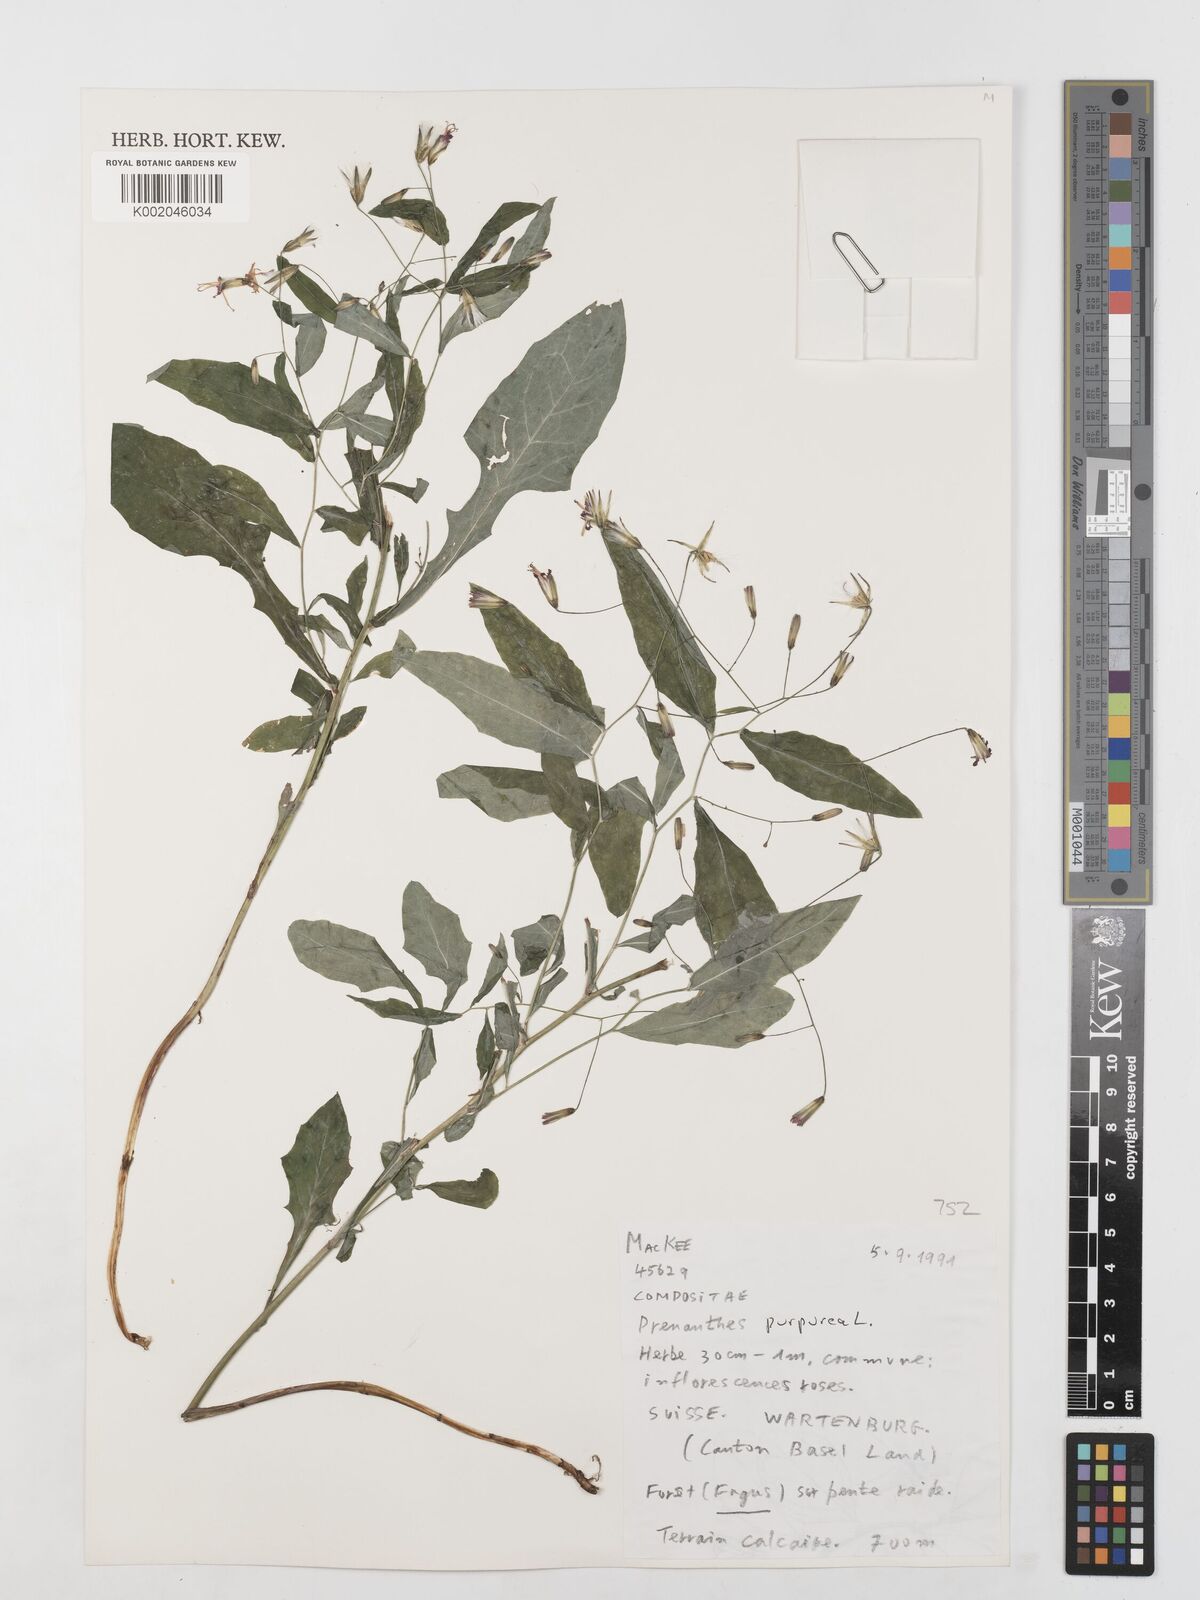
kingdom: Plantae
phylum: Tracheophyta
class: Magnoliopsida
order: Asterales
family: Asteraceae
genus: Prenanthes
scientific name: Prenanthes purpurea
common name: Purple lettuce
